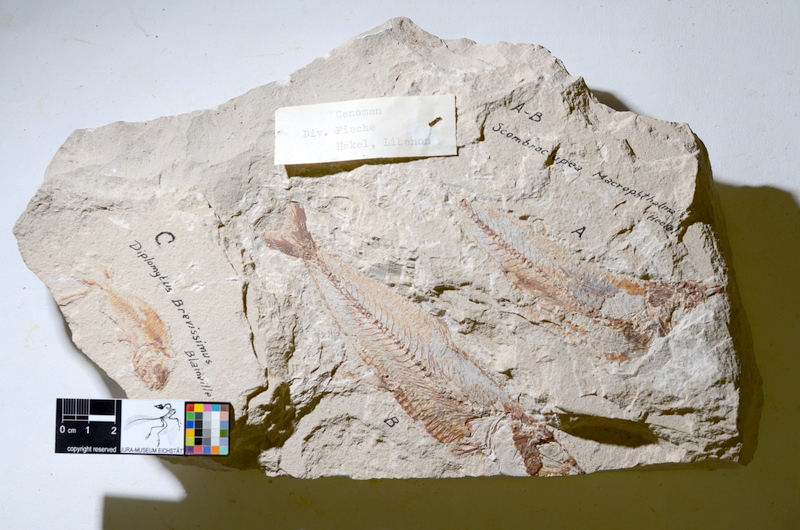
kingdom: Animalia
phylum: Chordata
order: Clupeiformes
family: Clupeidae
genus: Harengula
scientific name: Harengula clupeola
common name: False pilchard
